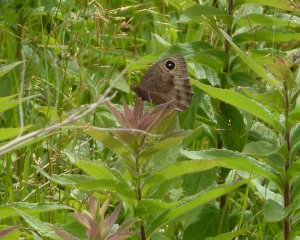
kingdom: Animalia
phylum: Arthropoda
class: Insecta
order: Lepidoptera
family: Nymphalidae
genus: Cercyonis
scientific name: Cercyonis pegala
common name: Common Wood-Nymph
